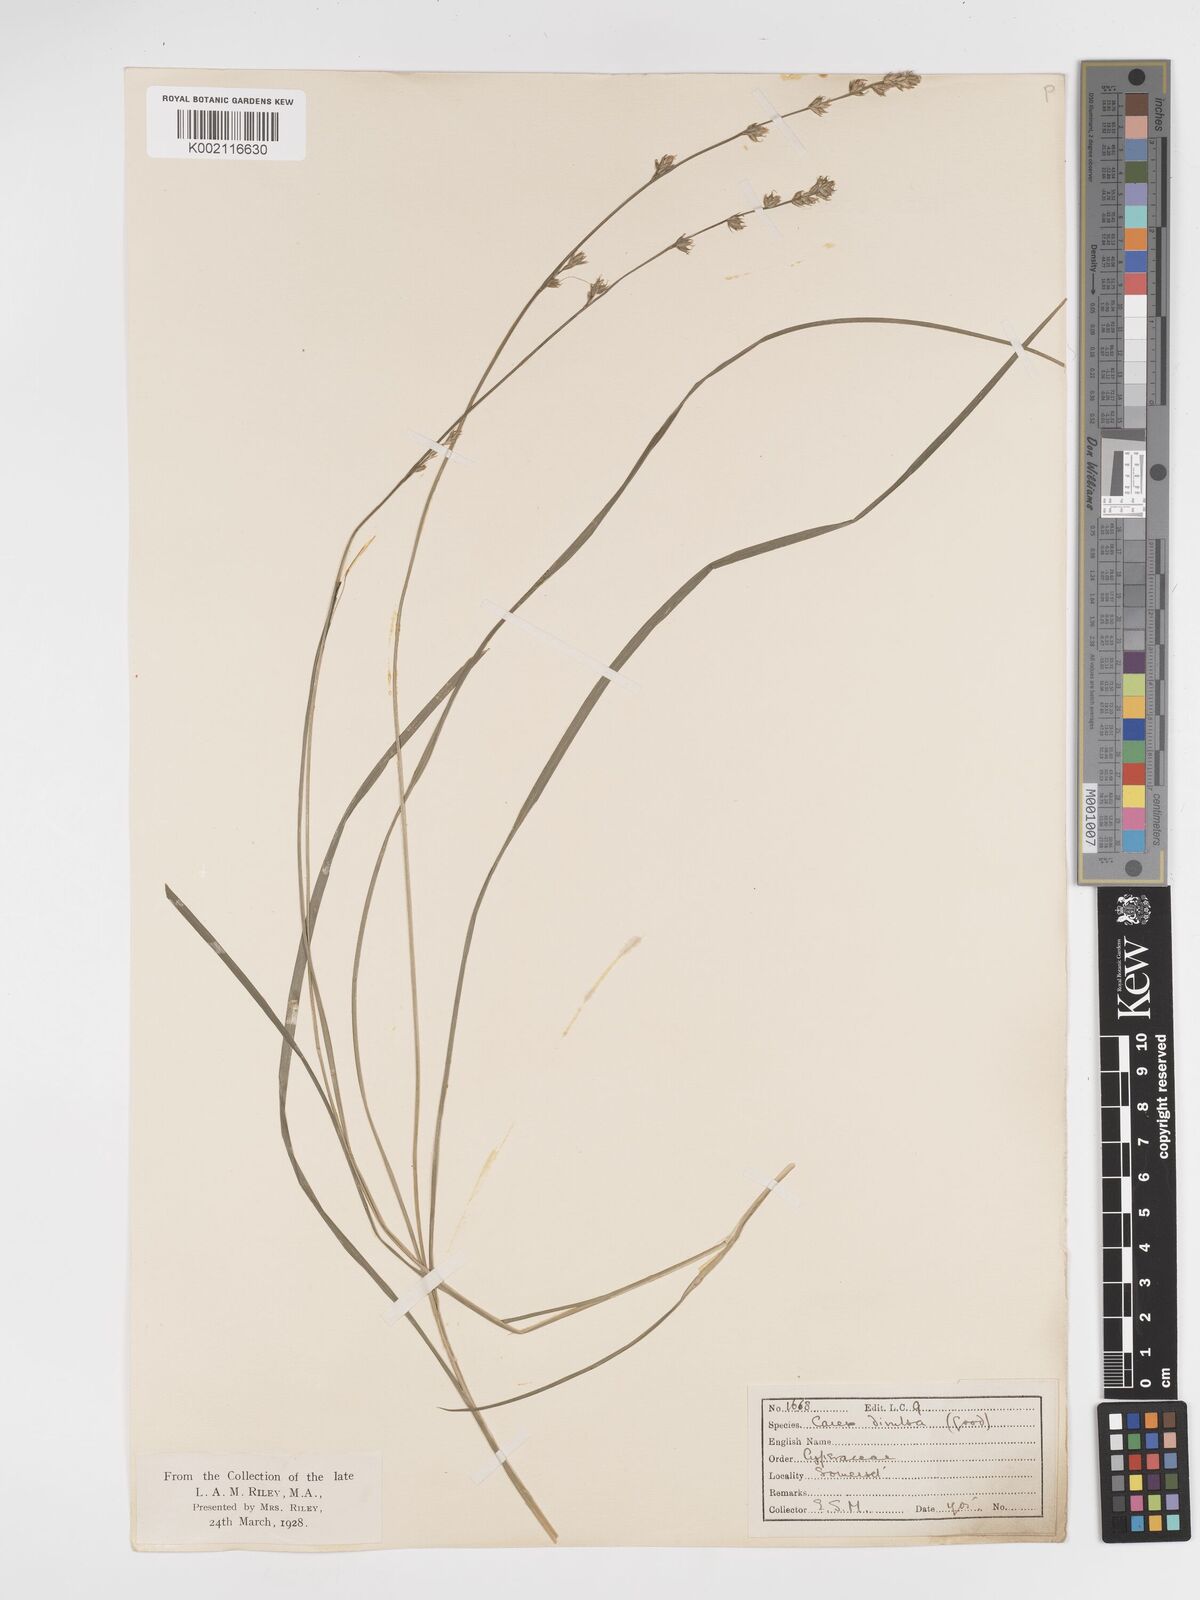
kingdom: Plantae
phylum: Tracheophyta
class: Liliopsida
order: Poales
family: Cyperaceae
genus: Carex
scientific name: Carex divulsa
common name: Grassland sedge
